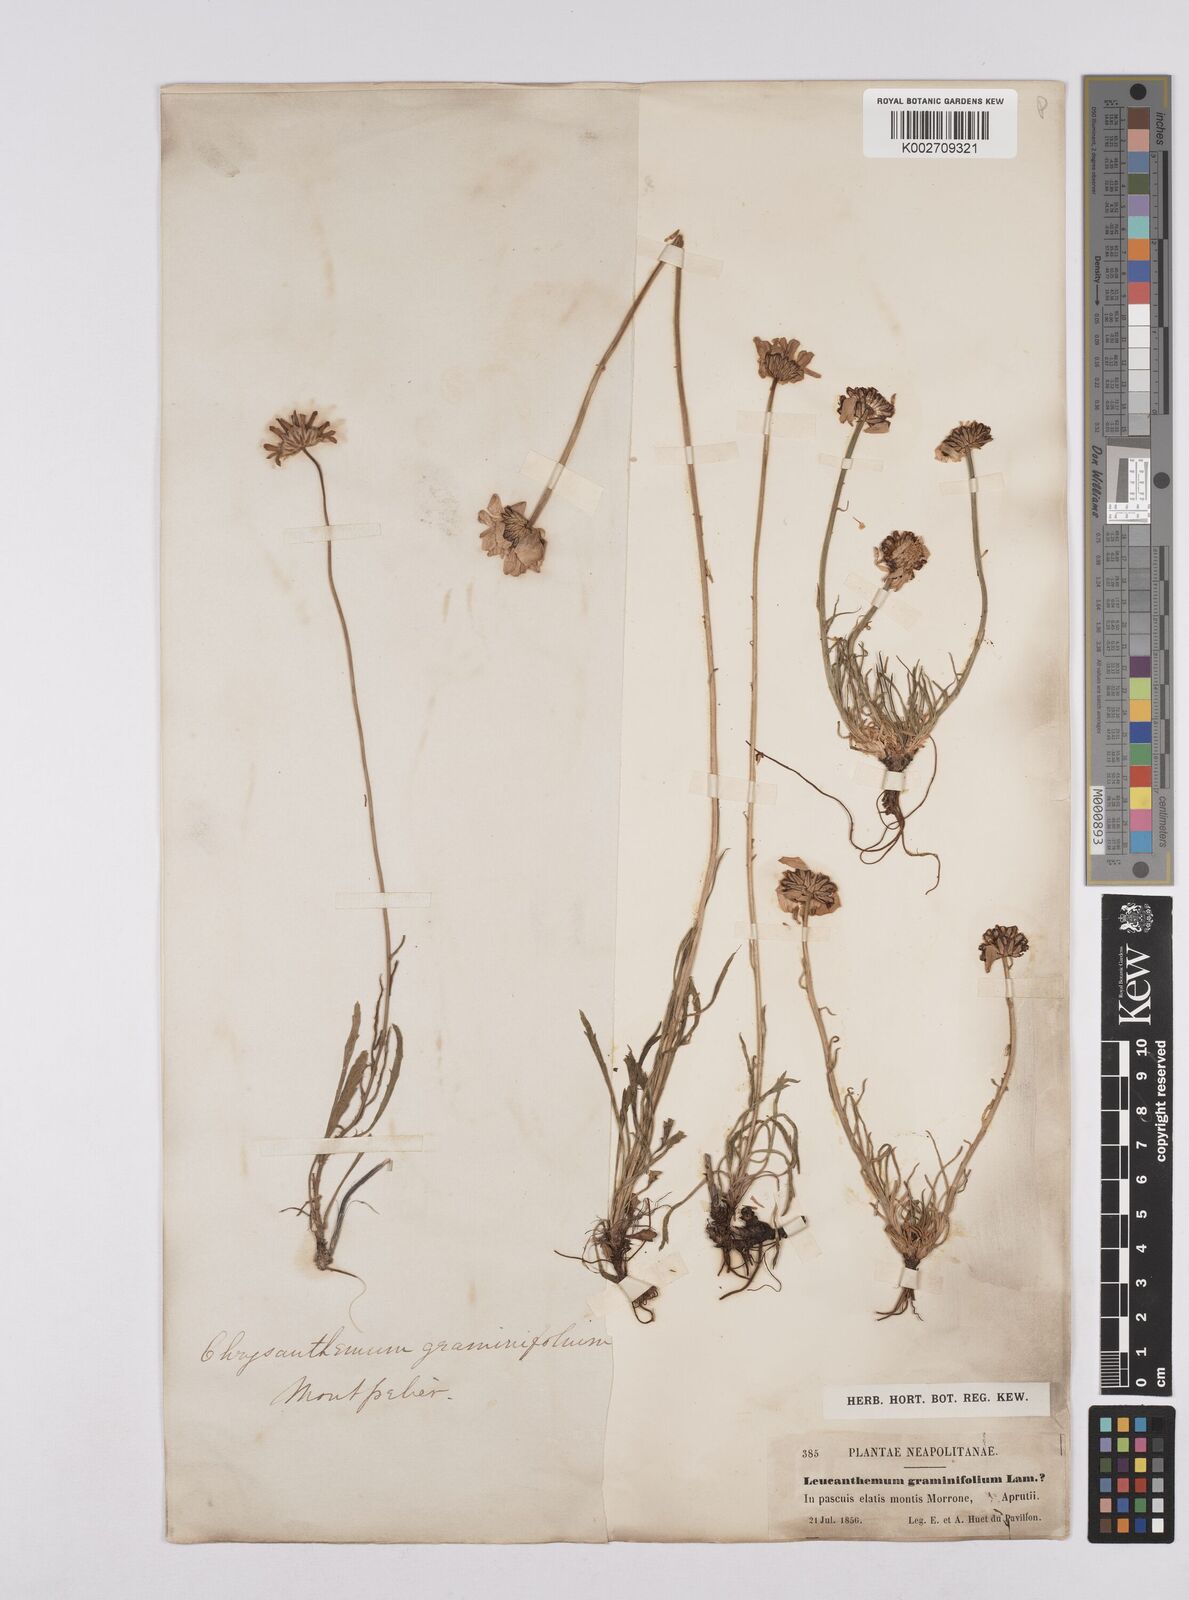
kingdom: Plantae
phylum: Tracheophyta
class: Magnoliopsida
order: Asterales
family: Asteraceae
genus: Leucanthemum
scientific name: Leucanthemum chloroticum
